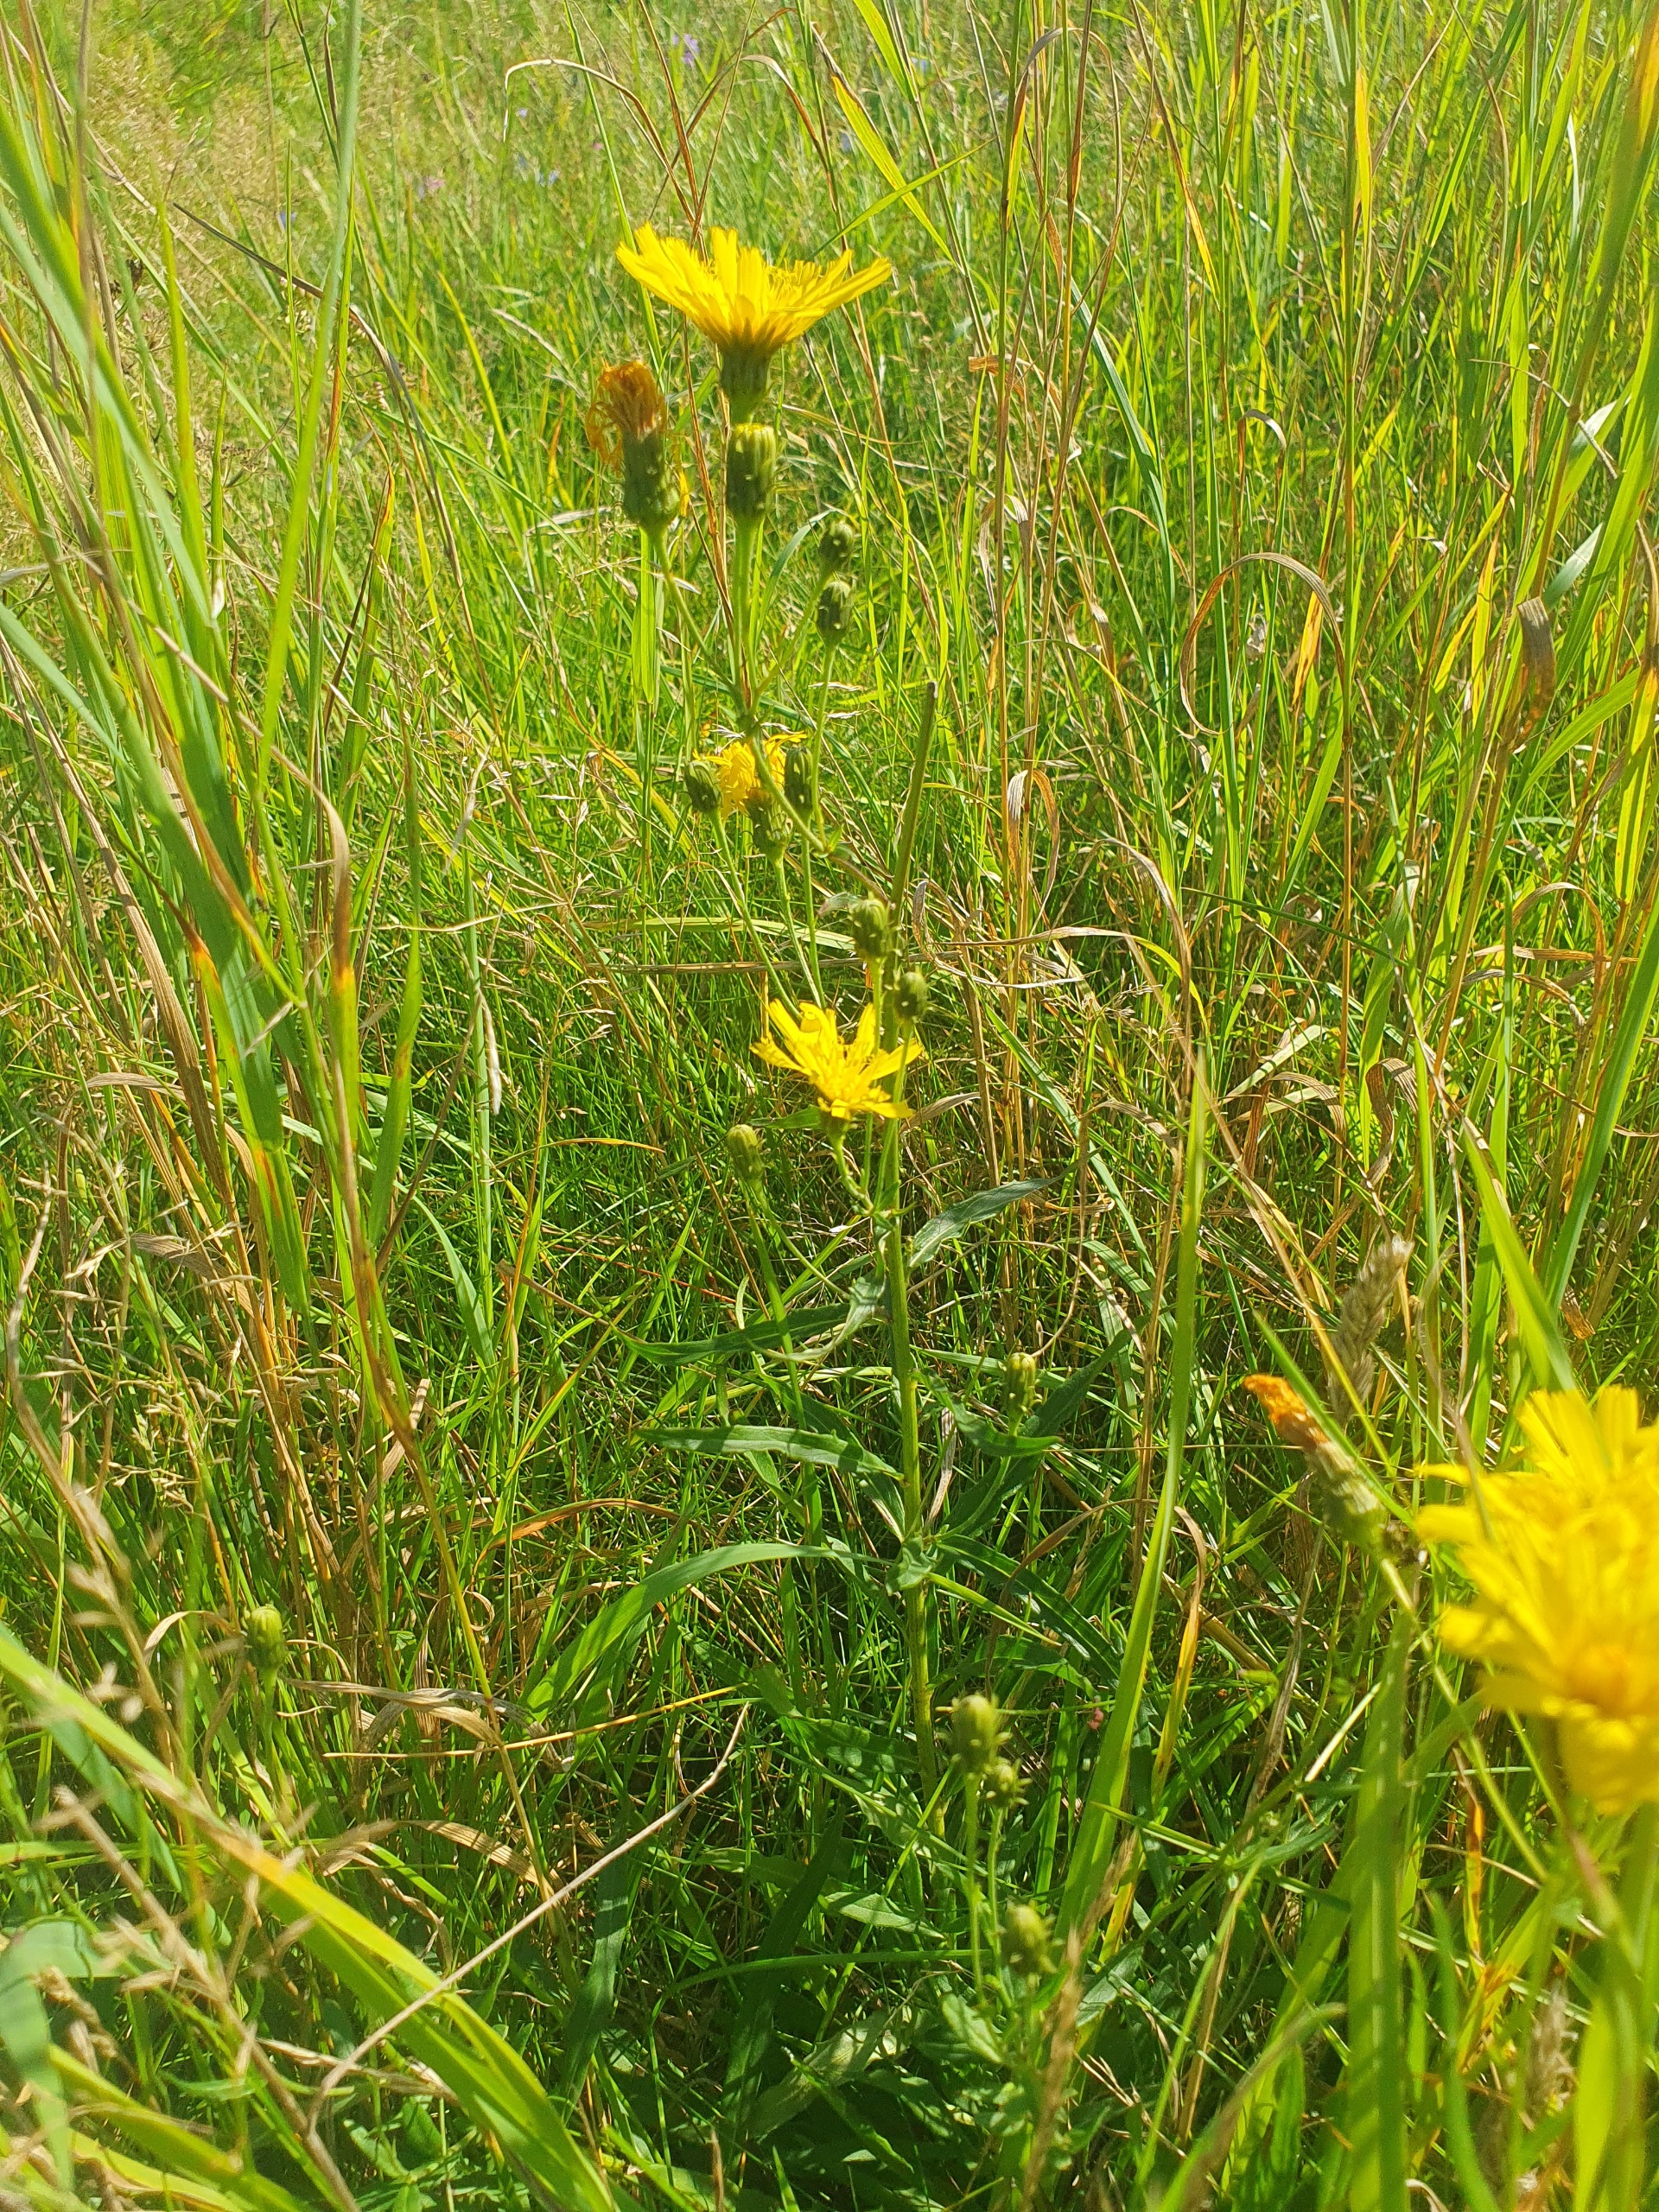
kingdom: Plantae
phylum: Tracheophyta
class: Magnoliopsida
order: Asterales
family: Asteraceae
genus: Hieracium
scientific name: Hieracium umbellatum
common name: Smalbladet høgeurt
